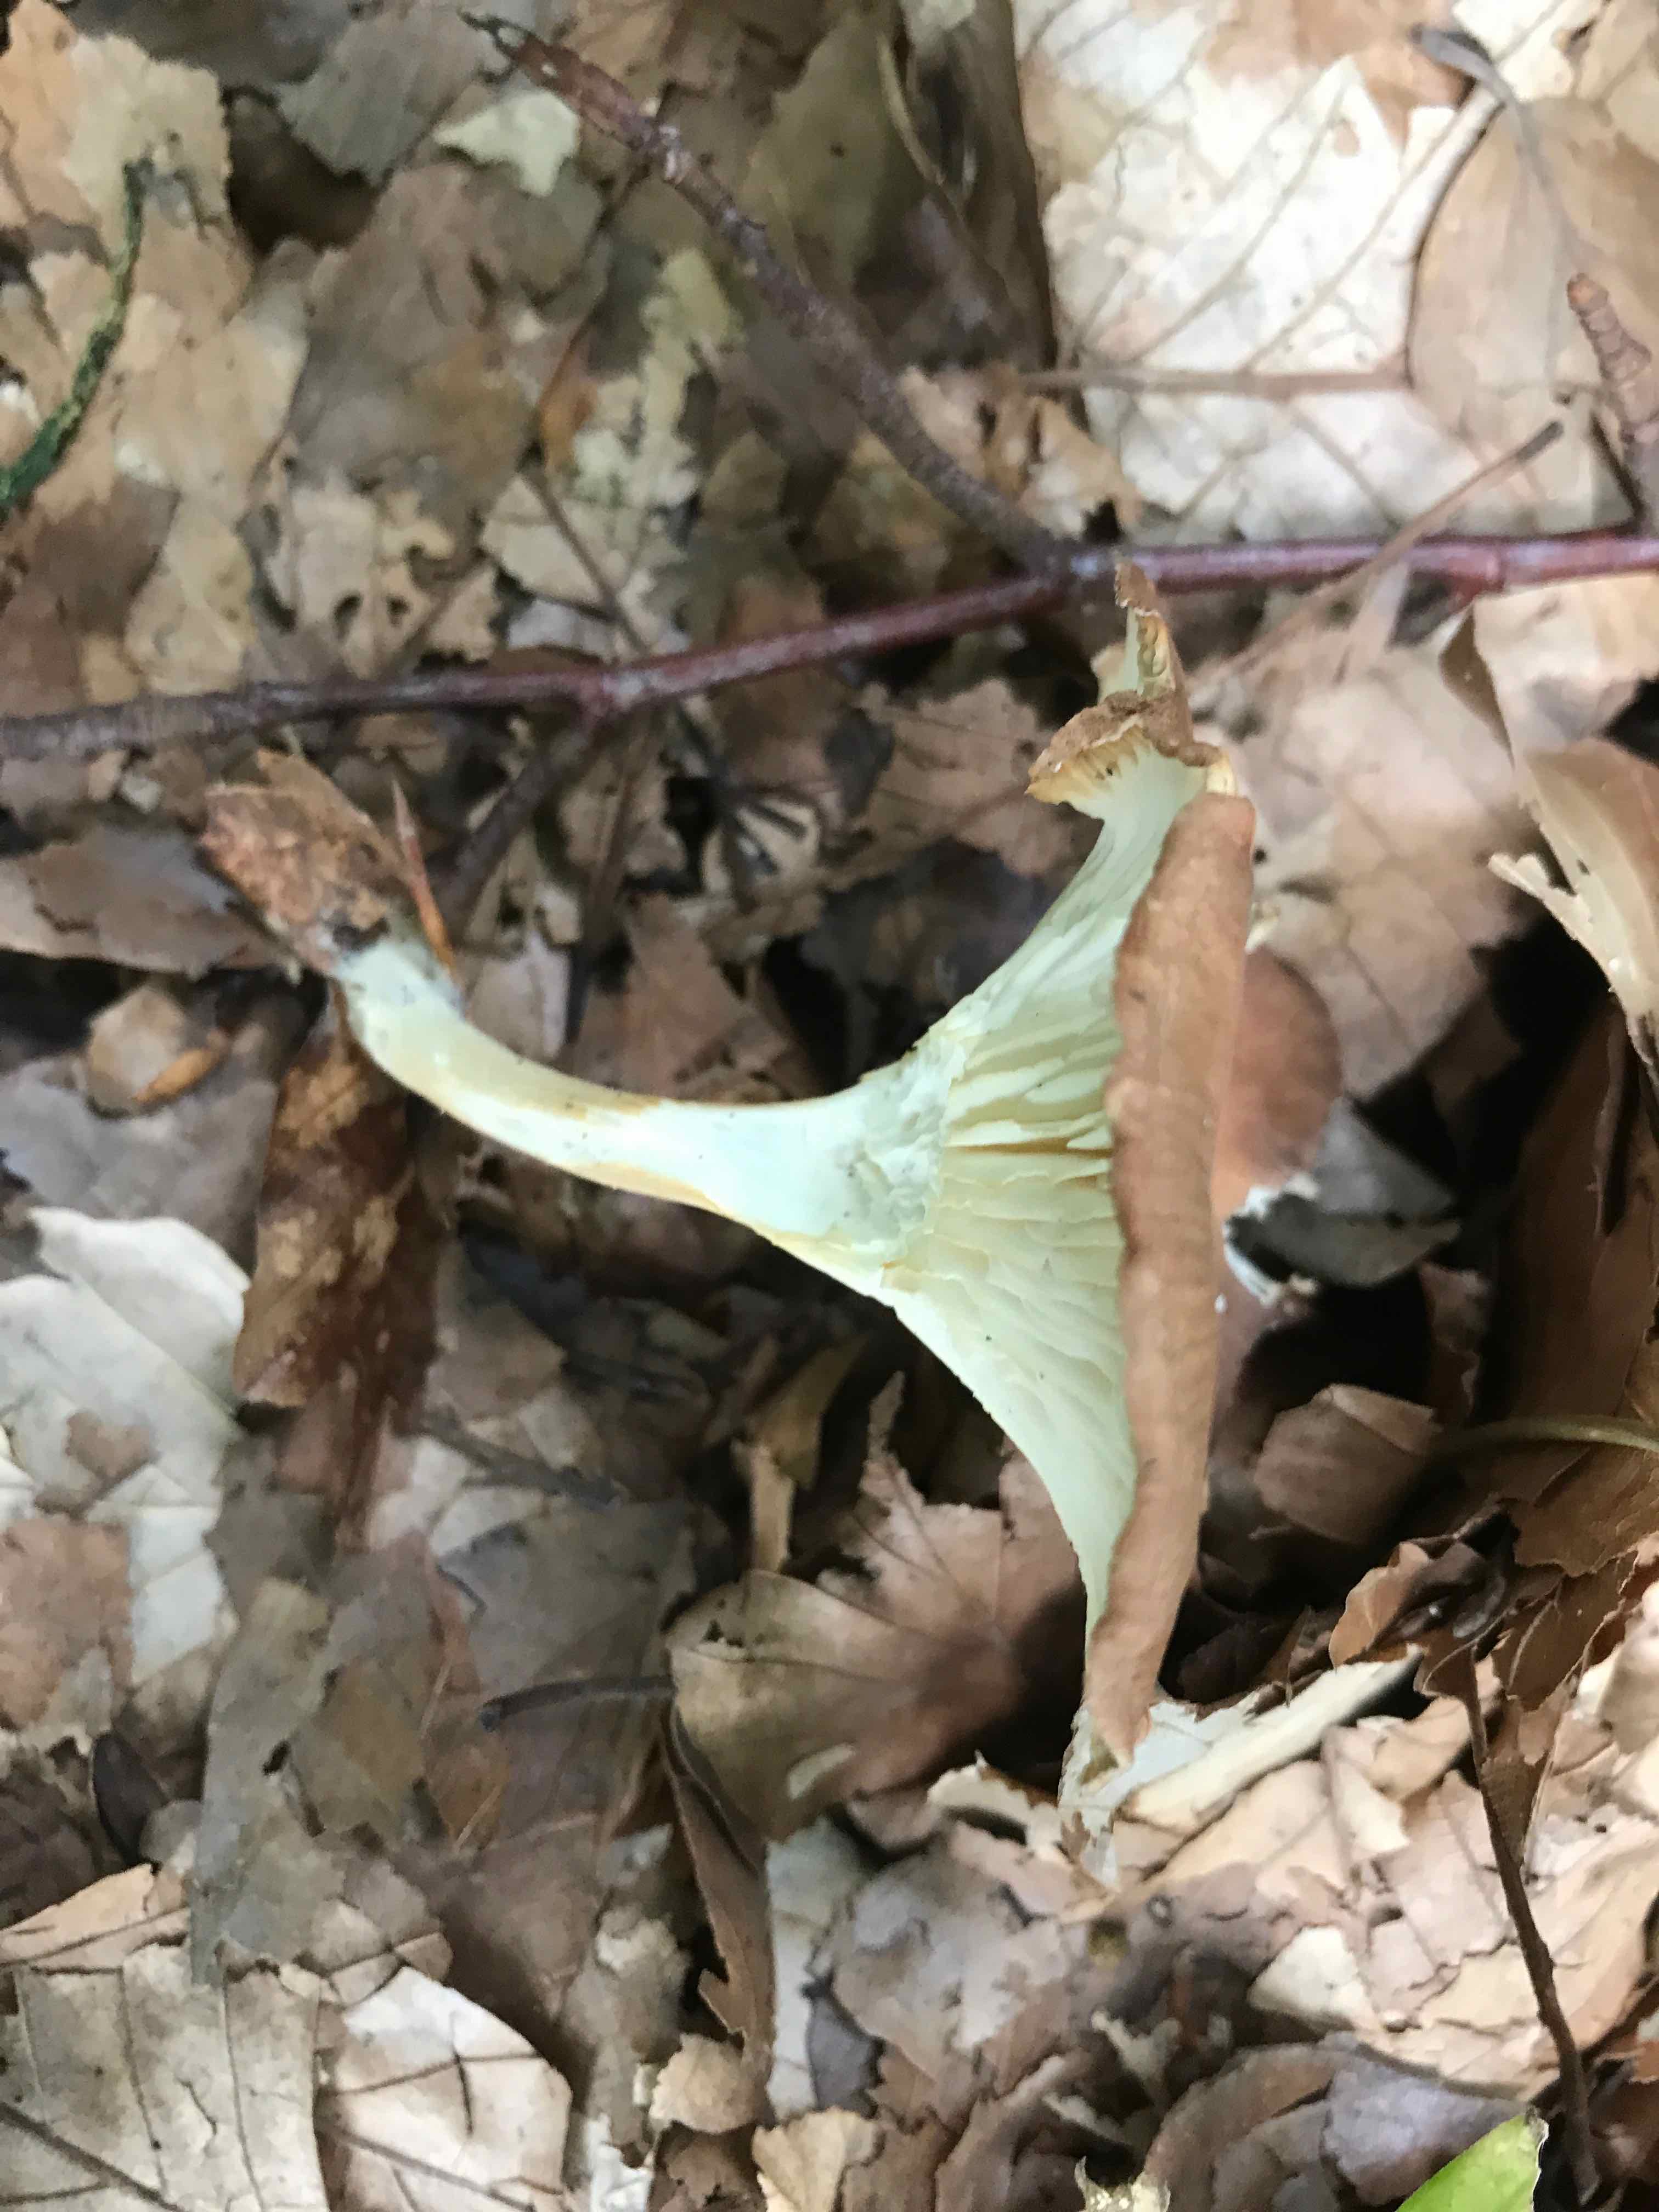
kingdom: Fungi
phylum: Basidiomycota
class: Agaricomycetes
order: Agaricales
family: Tricholomataceae
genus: Infundibulicybe
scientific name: Infundibulicybe gibba
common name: almindelig tragthat
